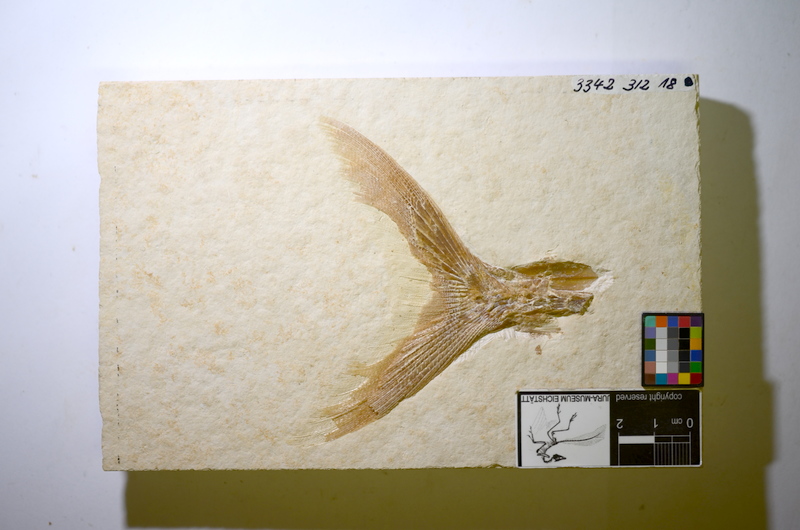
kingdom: Animalia
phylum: Chordata
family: Ankylophoridae
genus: Siemensichthys
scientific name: Siemensichthys
